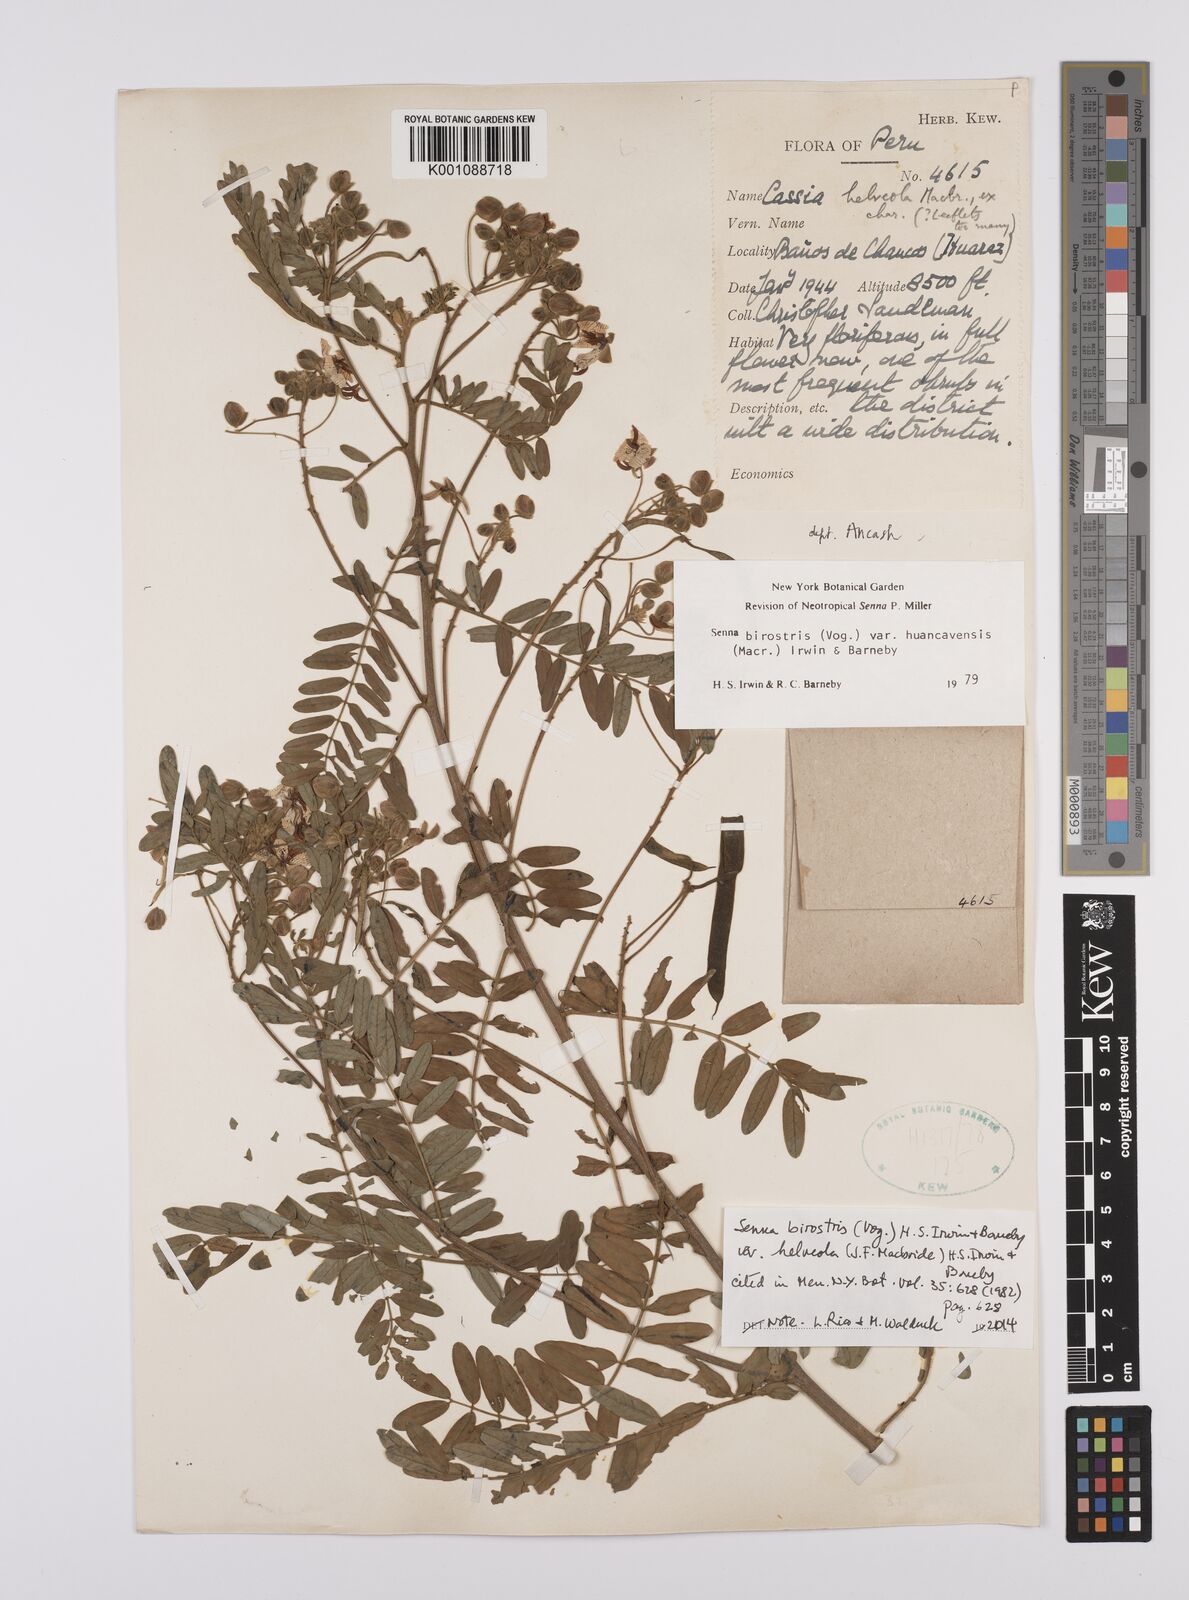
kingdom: Plantae
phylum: Tracheophyta
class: Magnoliopsida
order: Fabales
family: Fabaceae
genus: Senna
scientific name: Senna birostris
